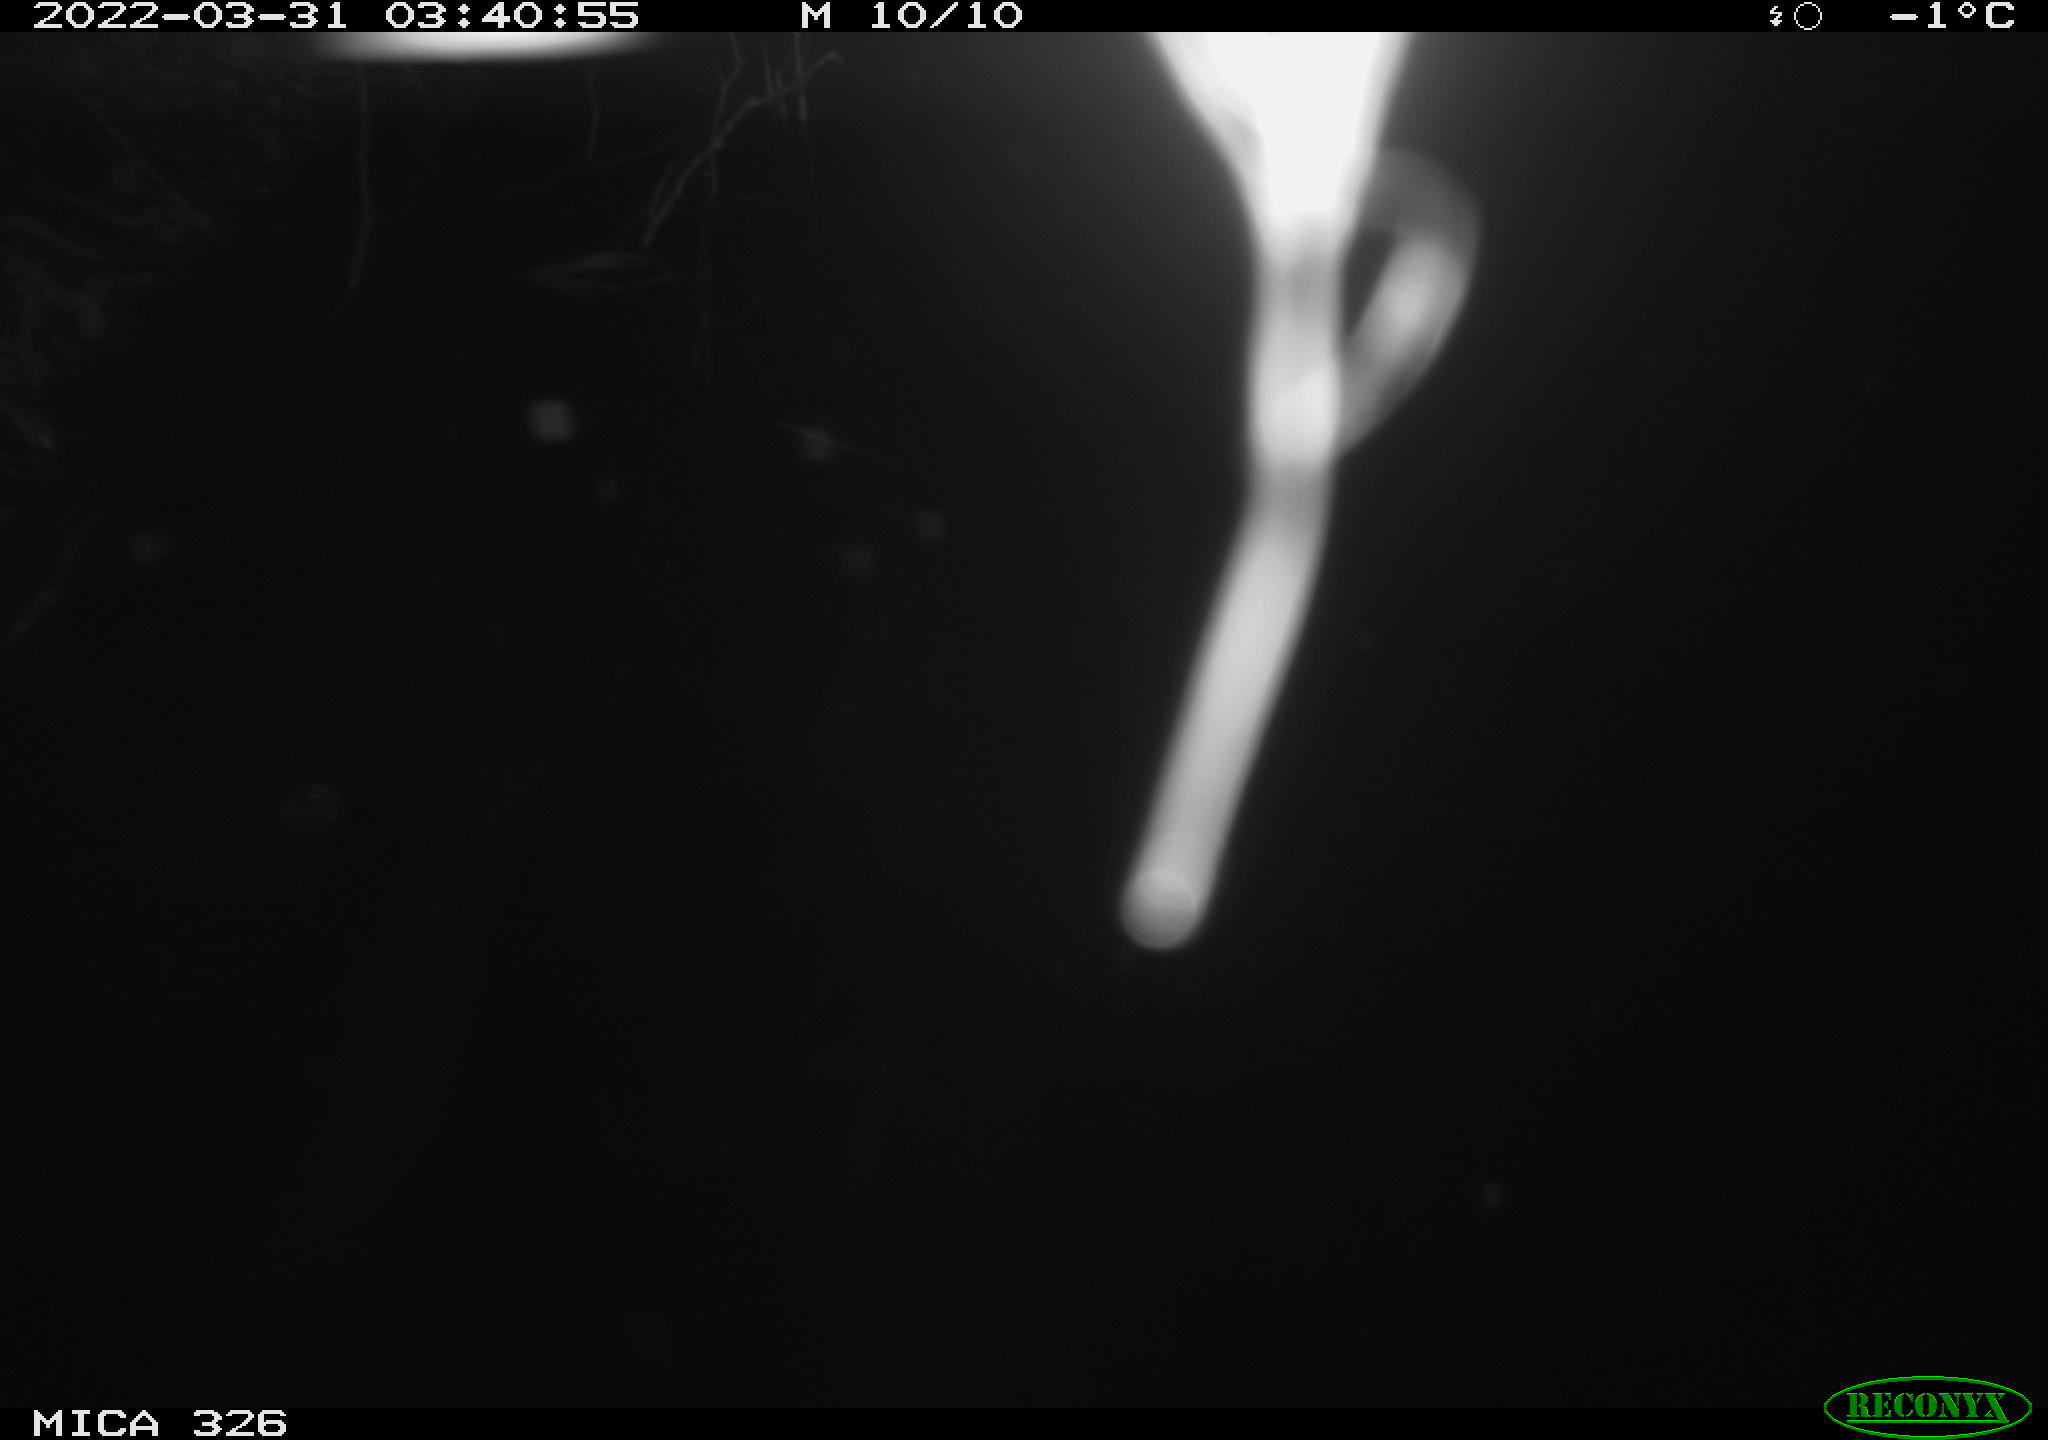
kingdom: Animalia
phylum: Chordata
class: Mammalia
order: Rodentia
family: Muridae
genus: Rattus
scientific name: Rattus norvegicus
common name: Brown rat
